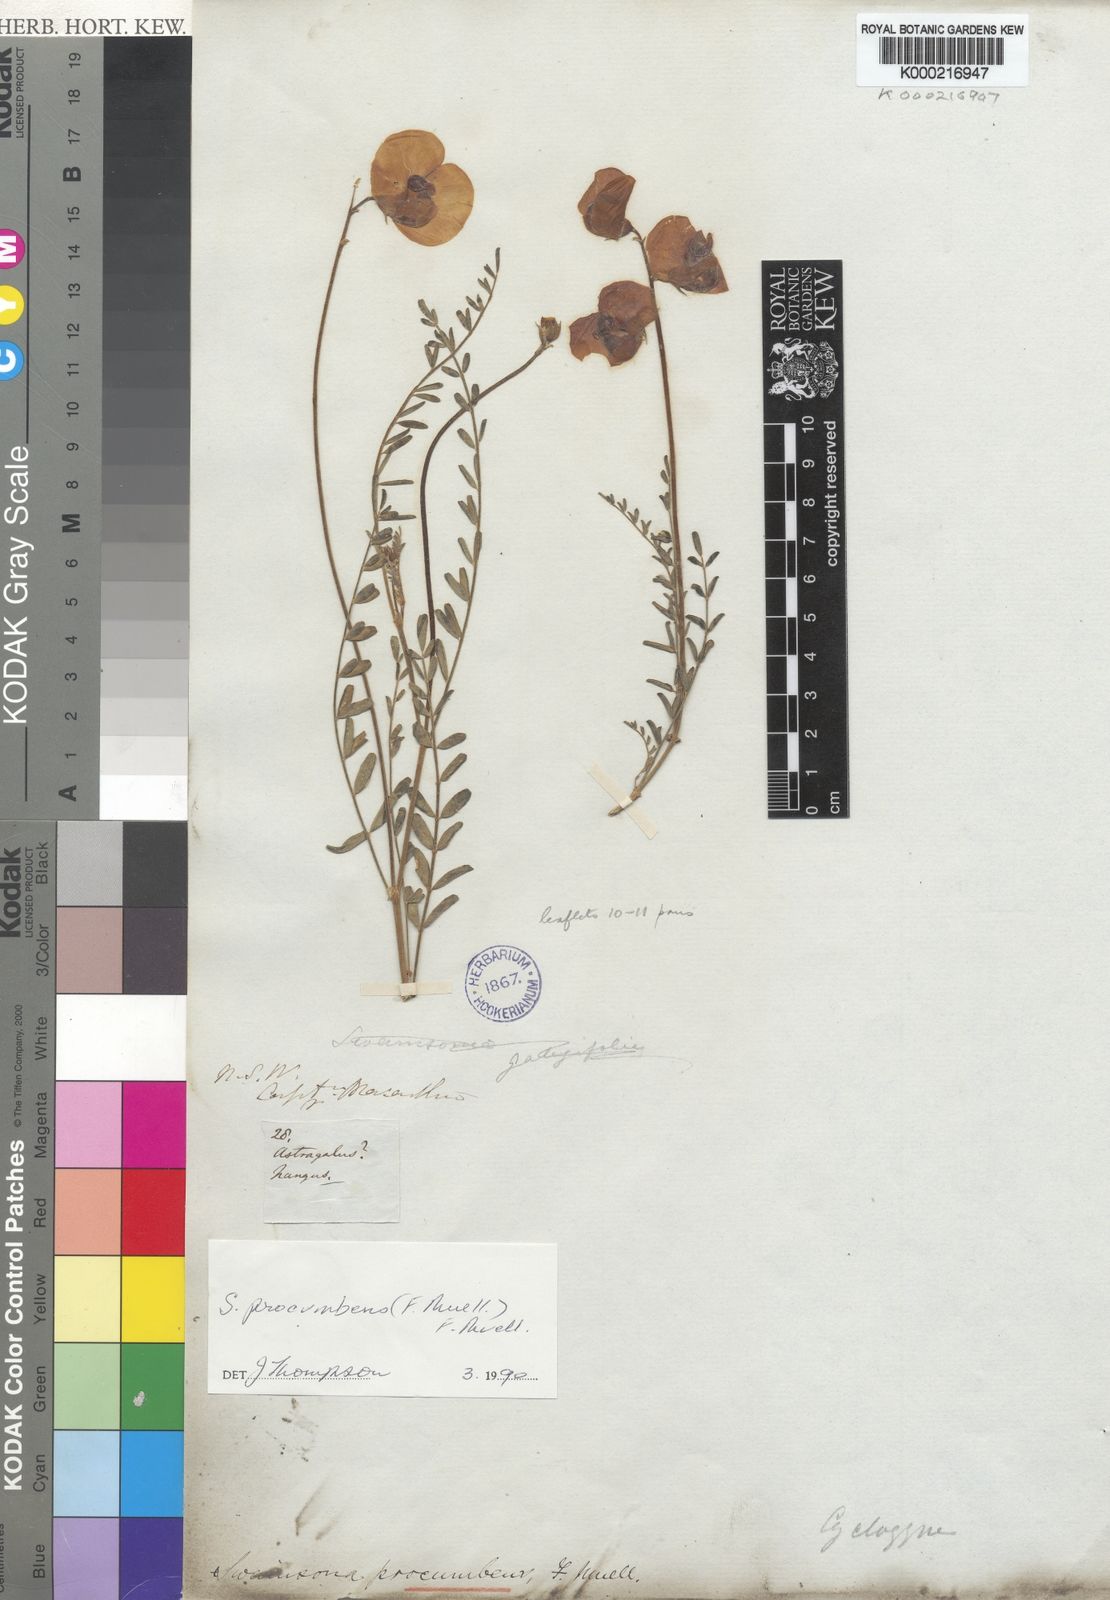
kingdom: Plantae
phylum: Tracheophyta
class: Magnoliopsida
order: Fabales
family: Fabaceae
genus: Swainsona
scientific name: Swainsona procumbens
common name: Broughton-pea
